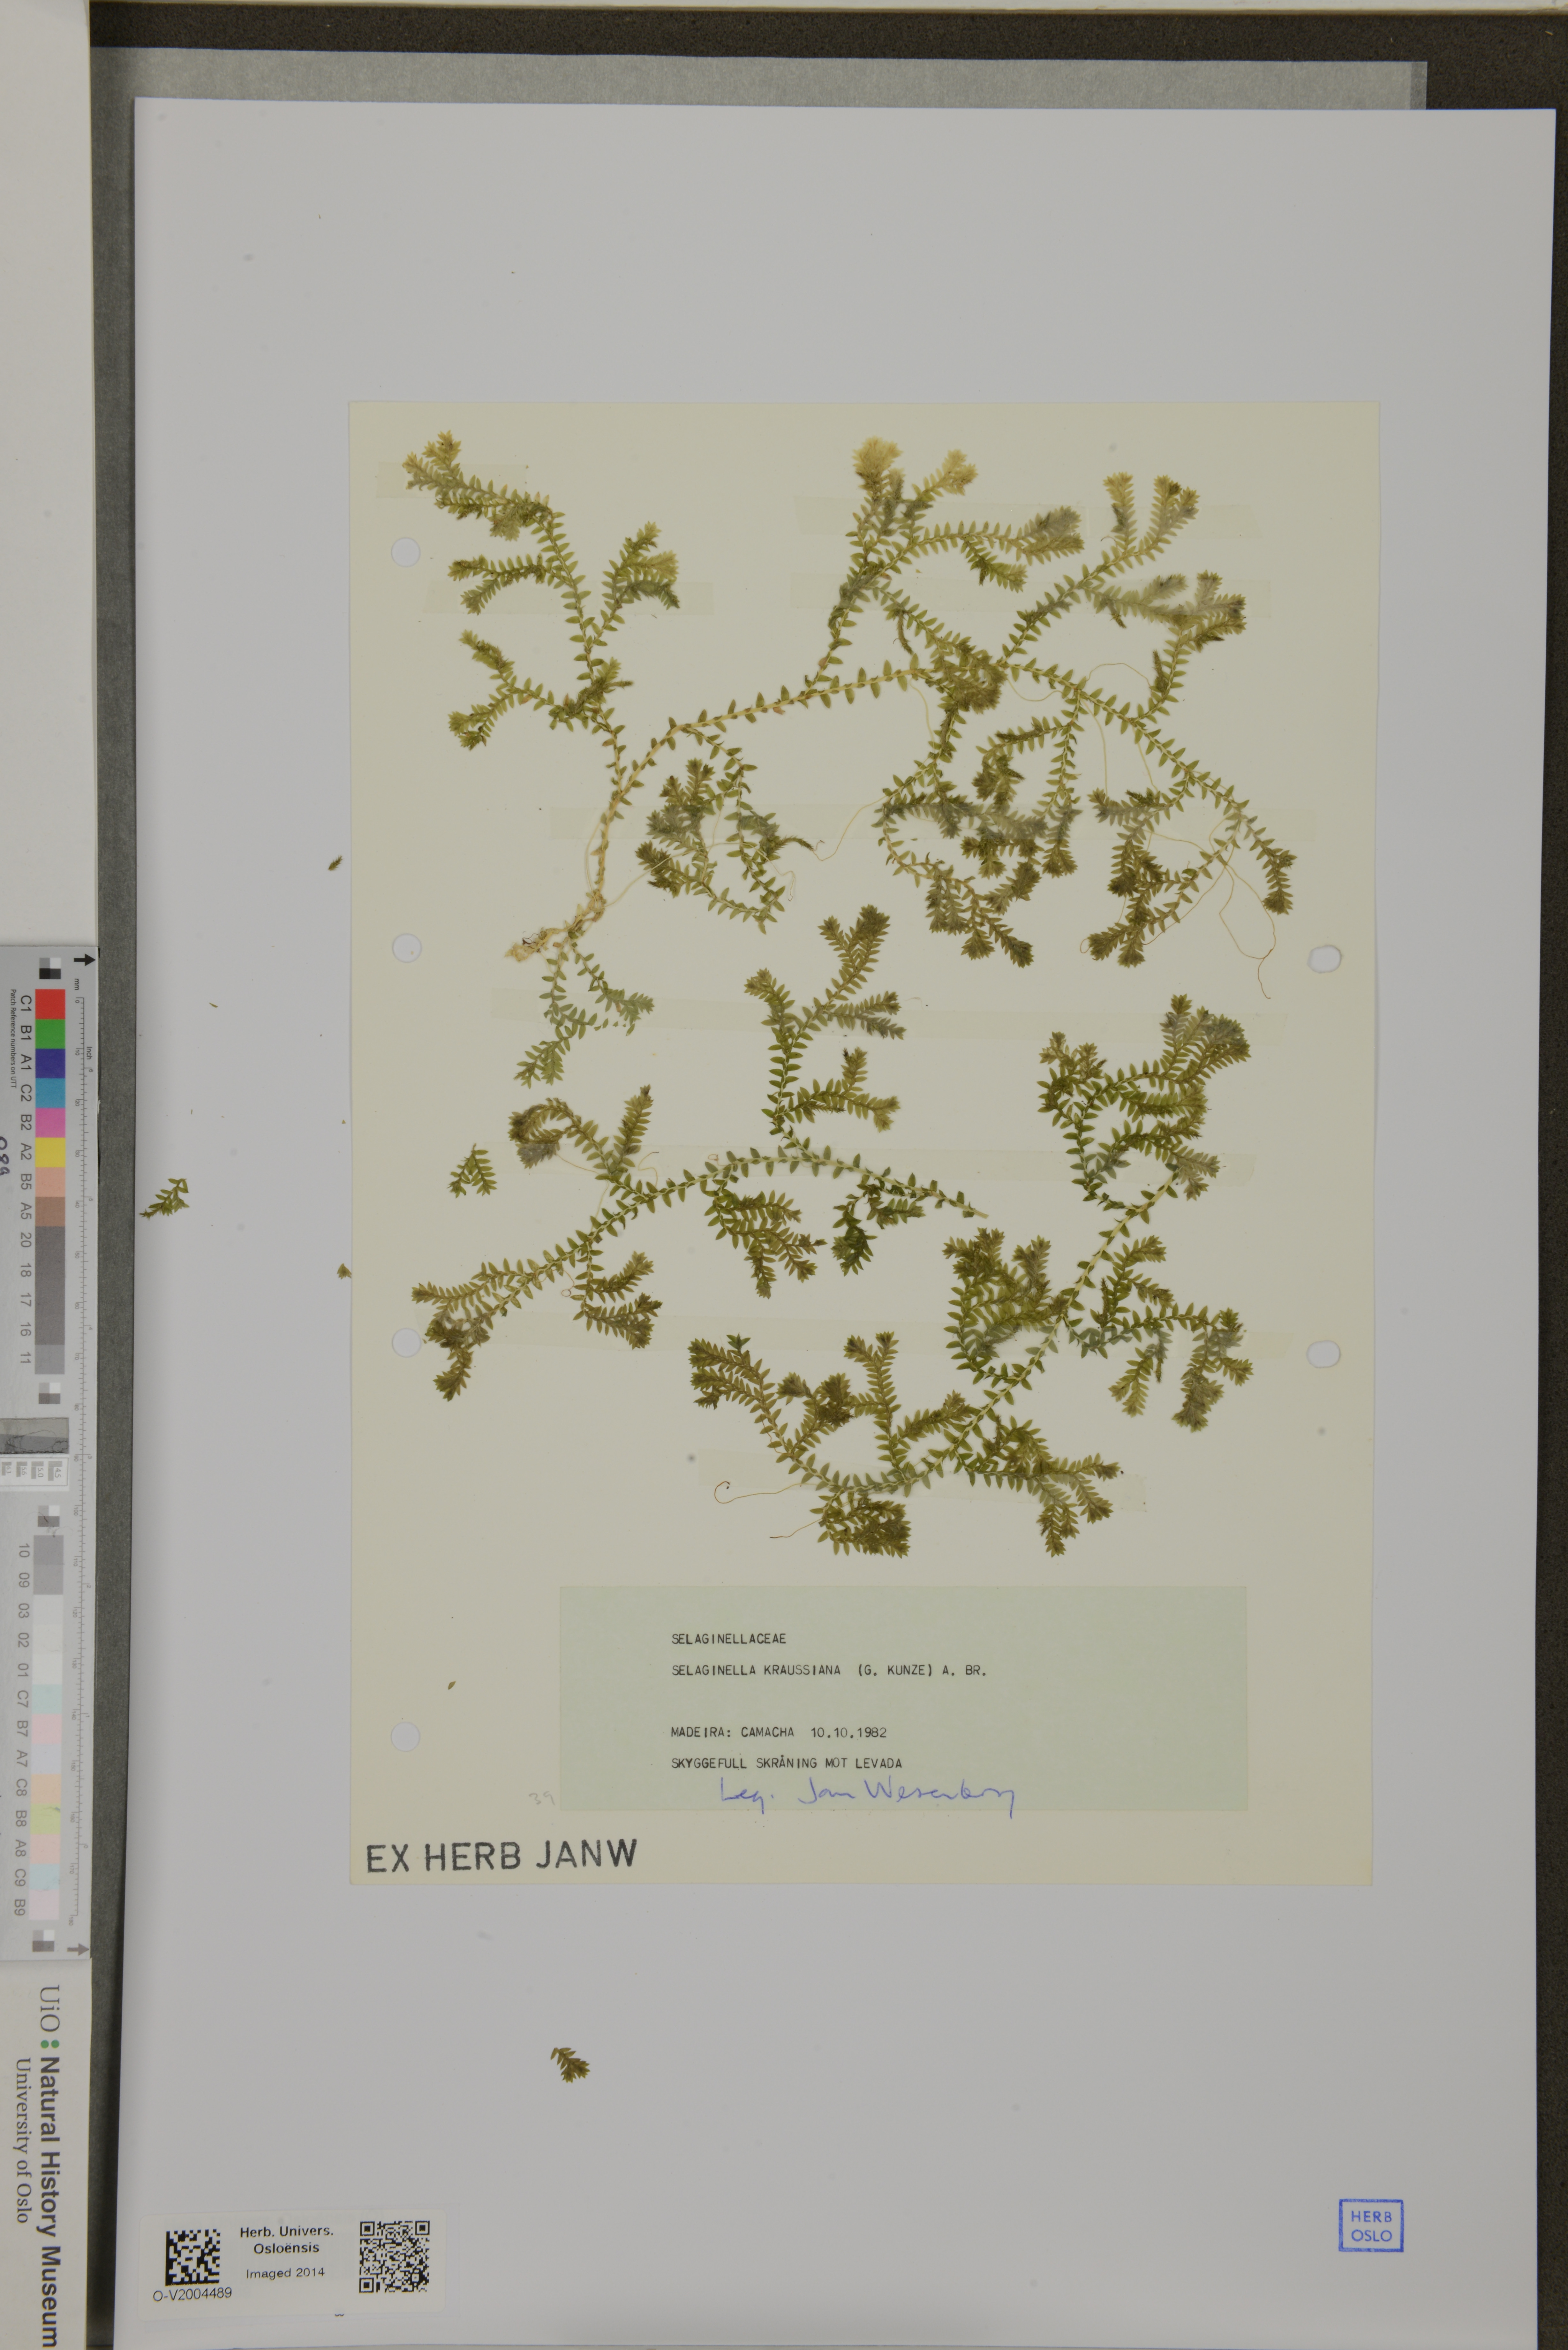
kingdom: Plantae
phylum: Tracheophyta
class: Lycopodiopsida
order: Selaginellales
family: Selaginellaceae
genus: Selaginella
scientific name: Selaginella kraussiana
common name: Krauss' spikemoss
